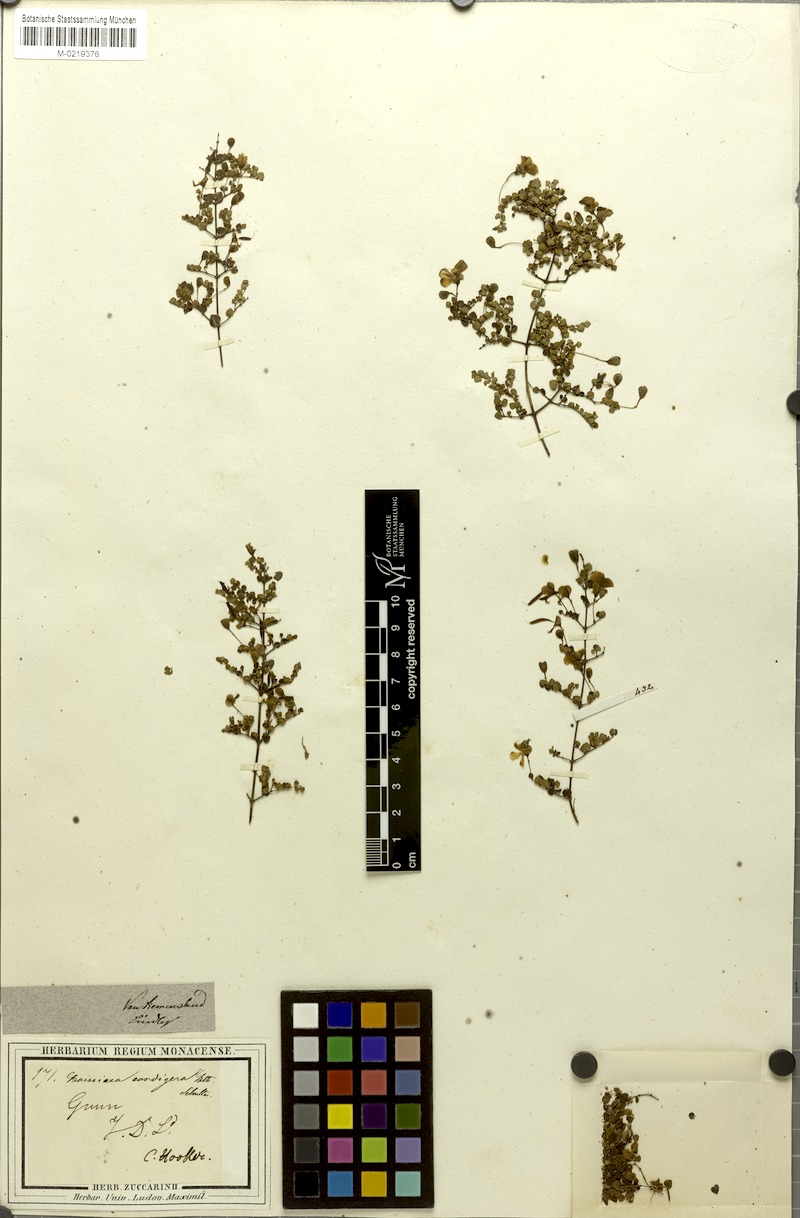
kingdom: Plantae
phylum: Tracheophyta
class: Magnoliopsida
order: Fabales
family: Fabaceae
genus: Bossiaea
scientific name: Bossiaea hendersonii
